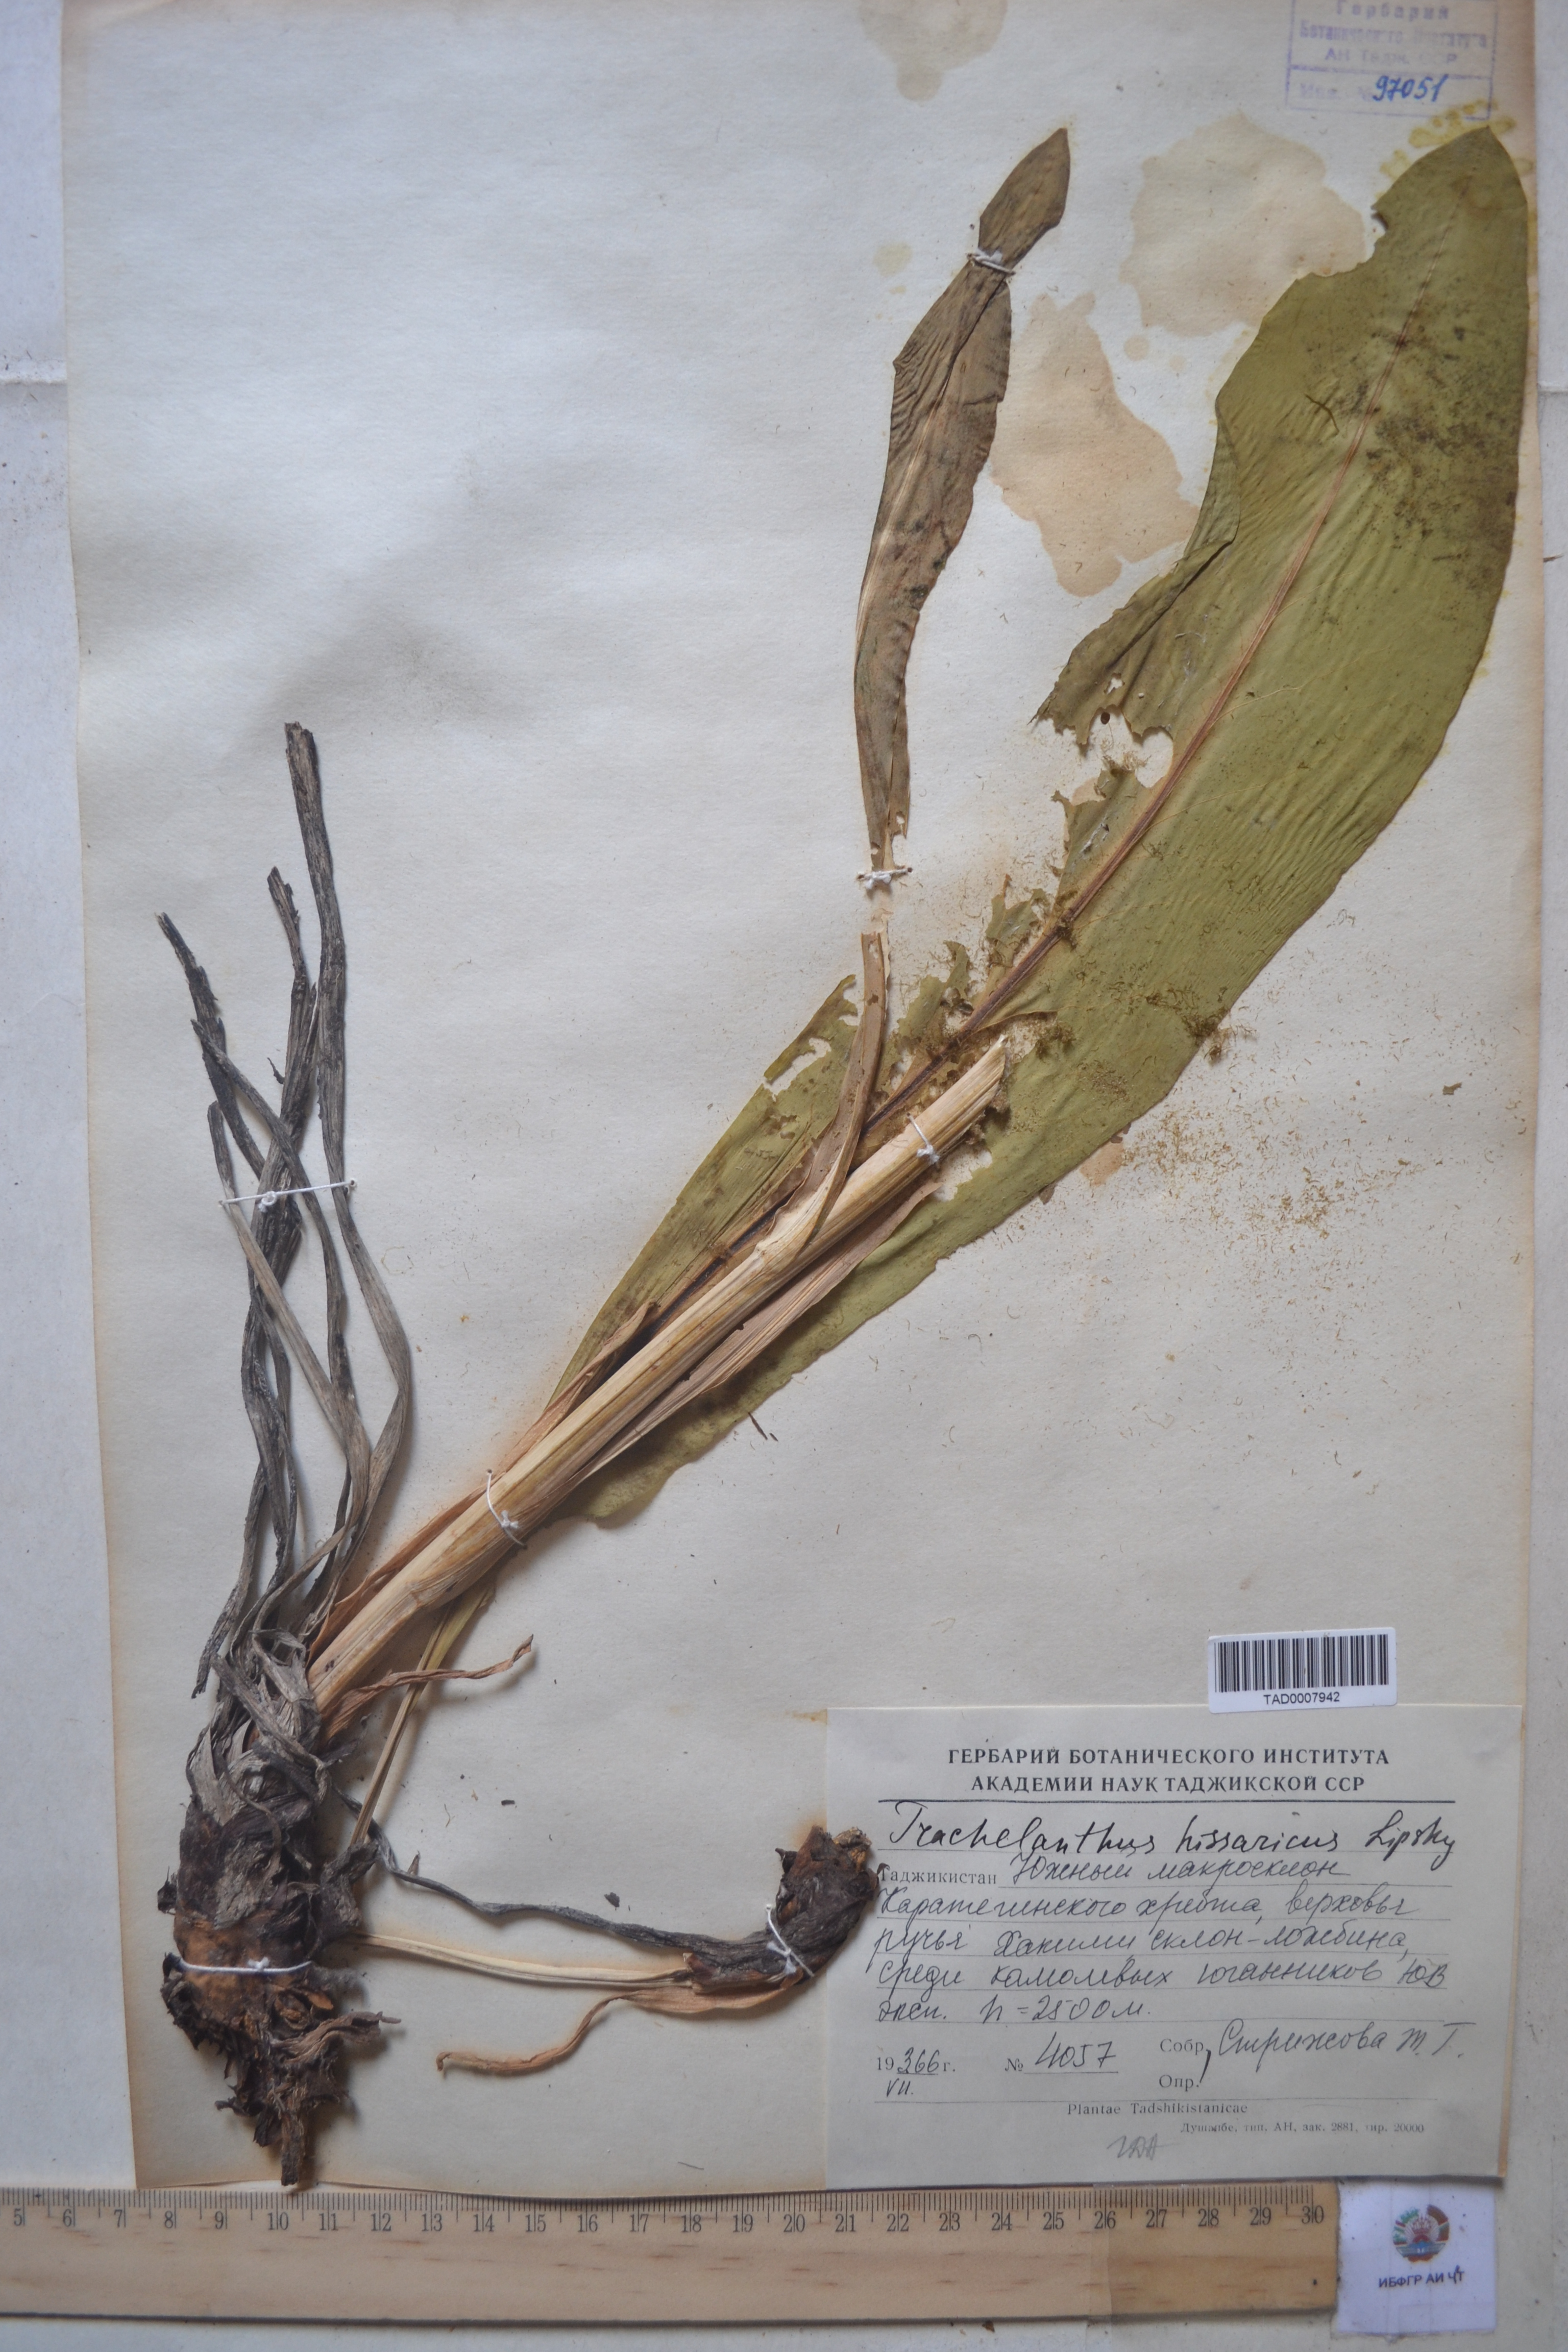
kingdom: Plantae
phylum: Tracheophyta
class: Magnoliopsida
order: Boraginales
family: Boraginaceae
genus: Lindelofia
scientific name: Lindelofia hissarica
